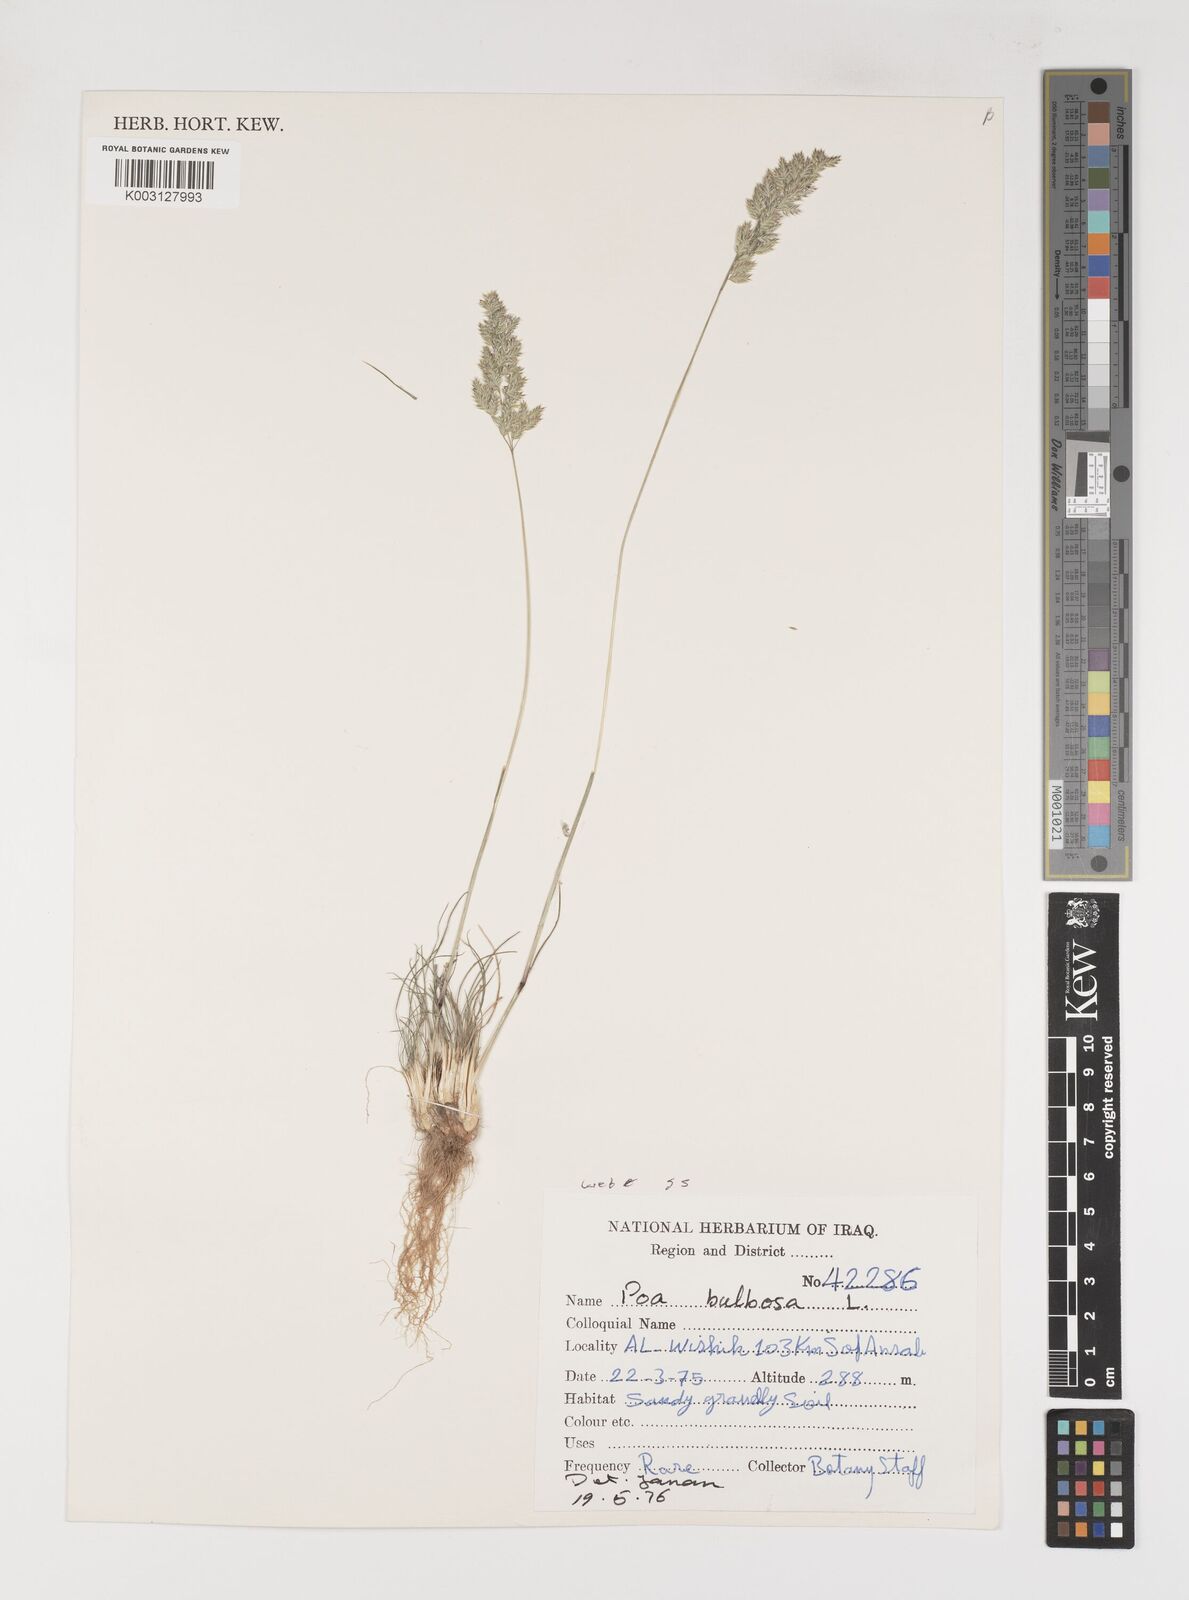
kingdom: Plantae
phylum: Tracheophyta
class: Liliopsida
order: Poales
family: Poaceae
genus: Poa
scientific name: Poa bulbosa
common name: Bulbous bluegrass
